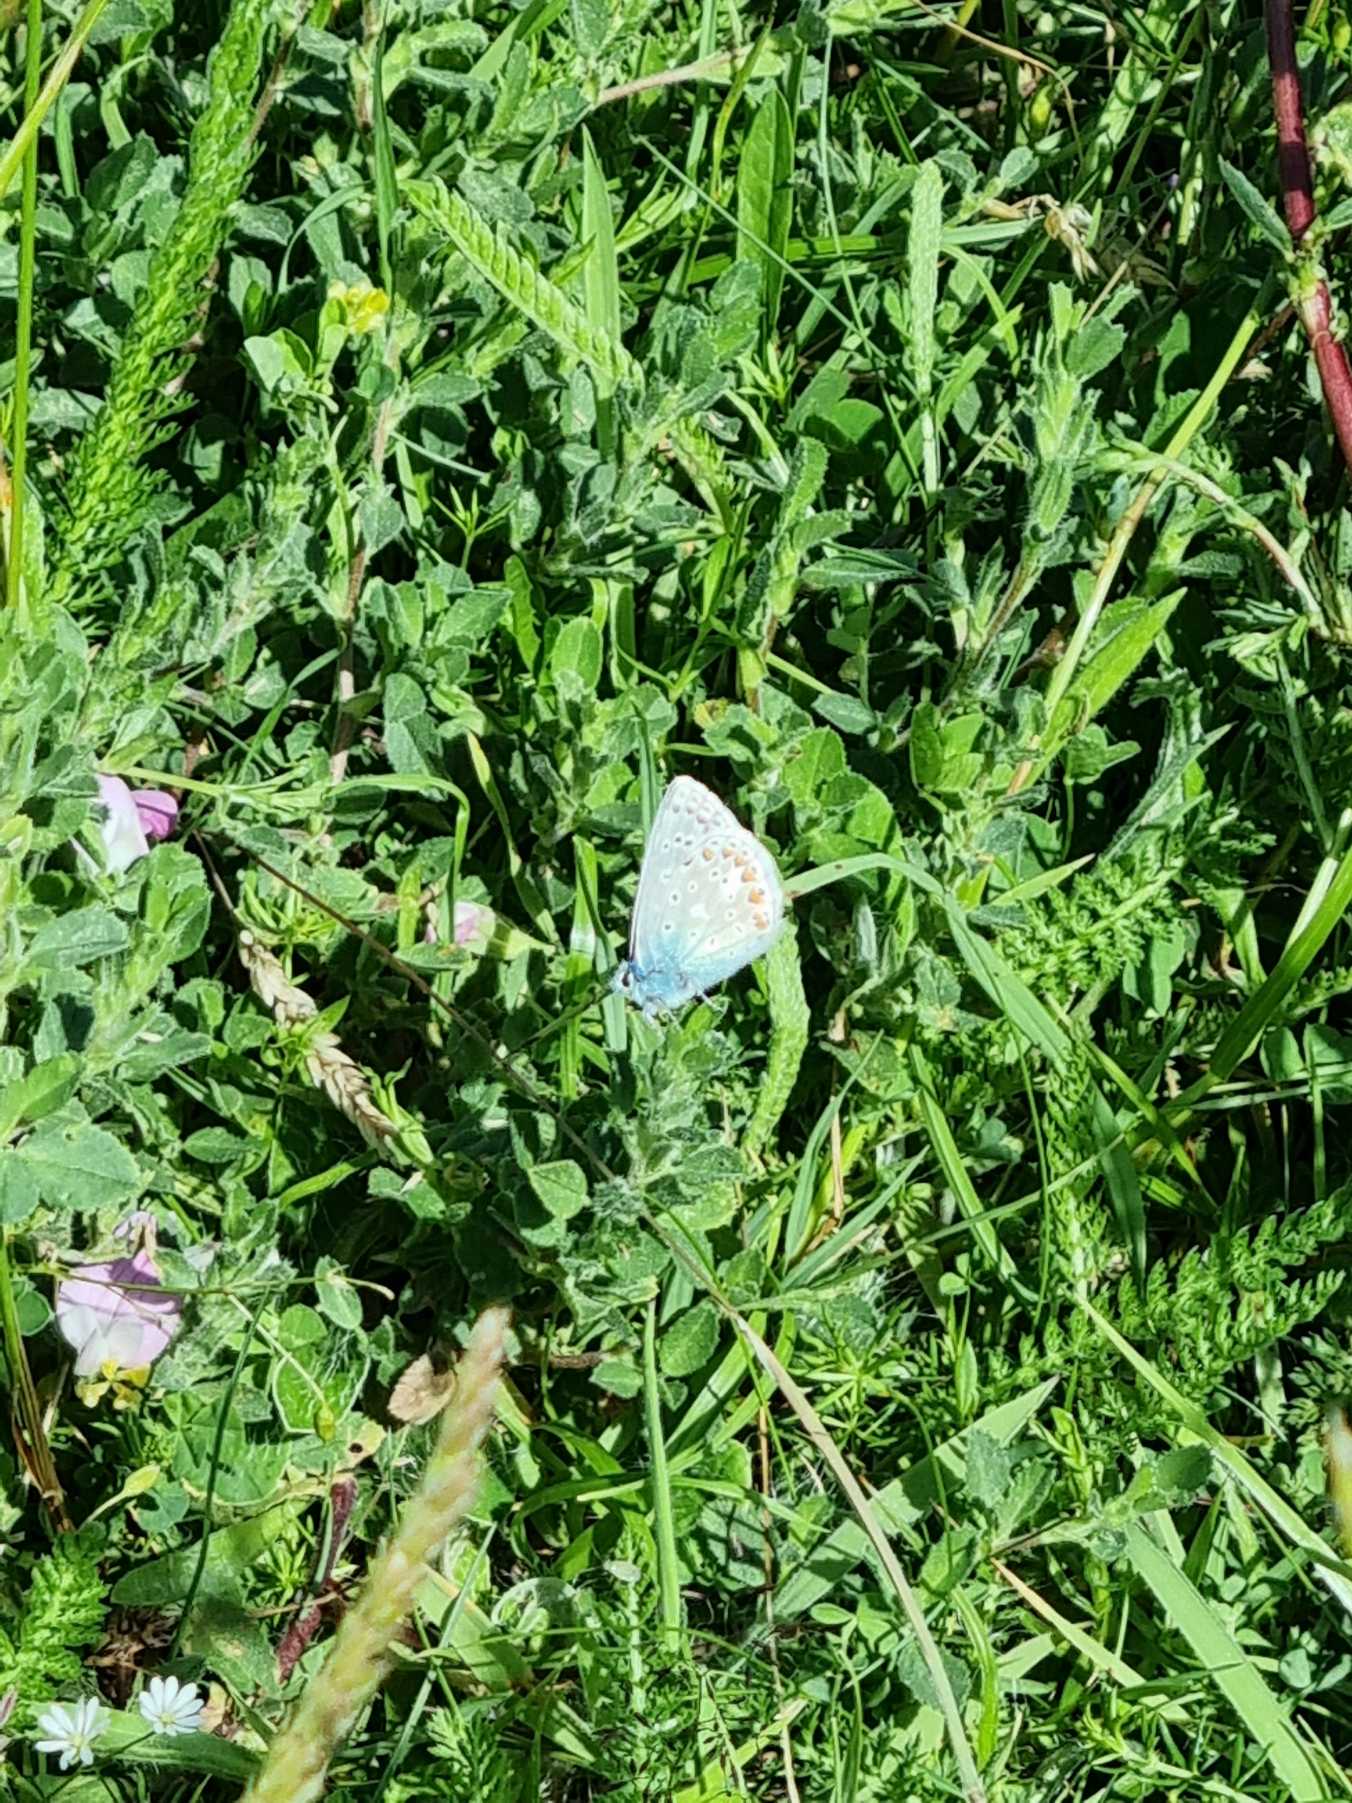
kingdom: Animalia
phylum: Arthropoda
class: Insecta
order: Lepidoptera
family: Lycaenidae
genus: Polyommatus
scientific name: Polyommatus icarus
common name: Almindelig blåfugl
